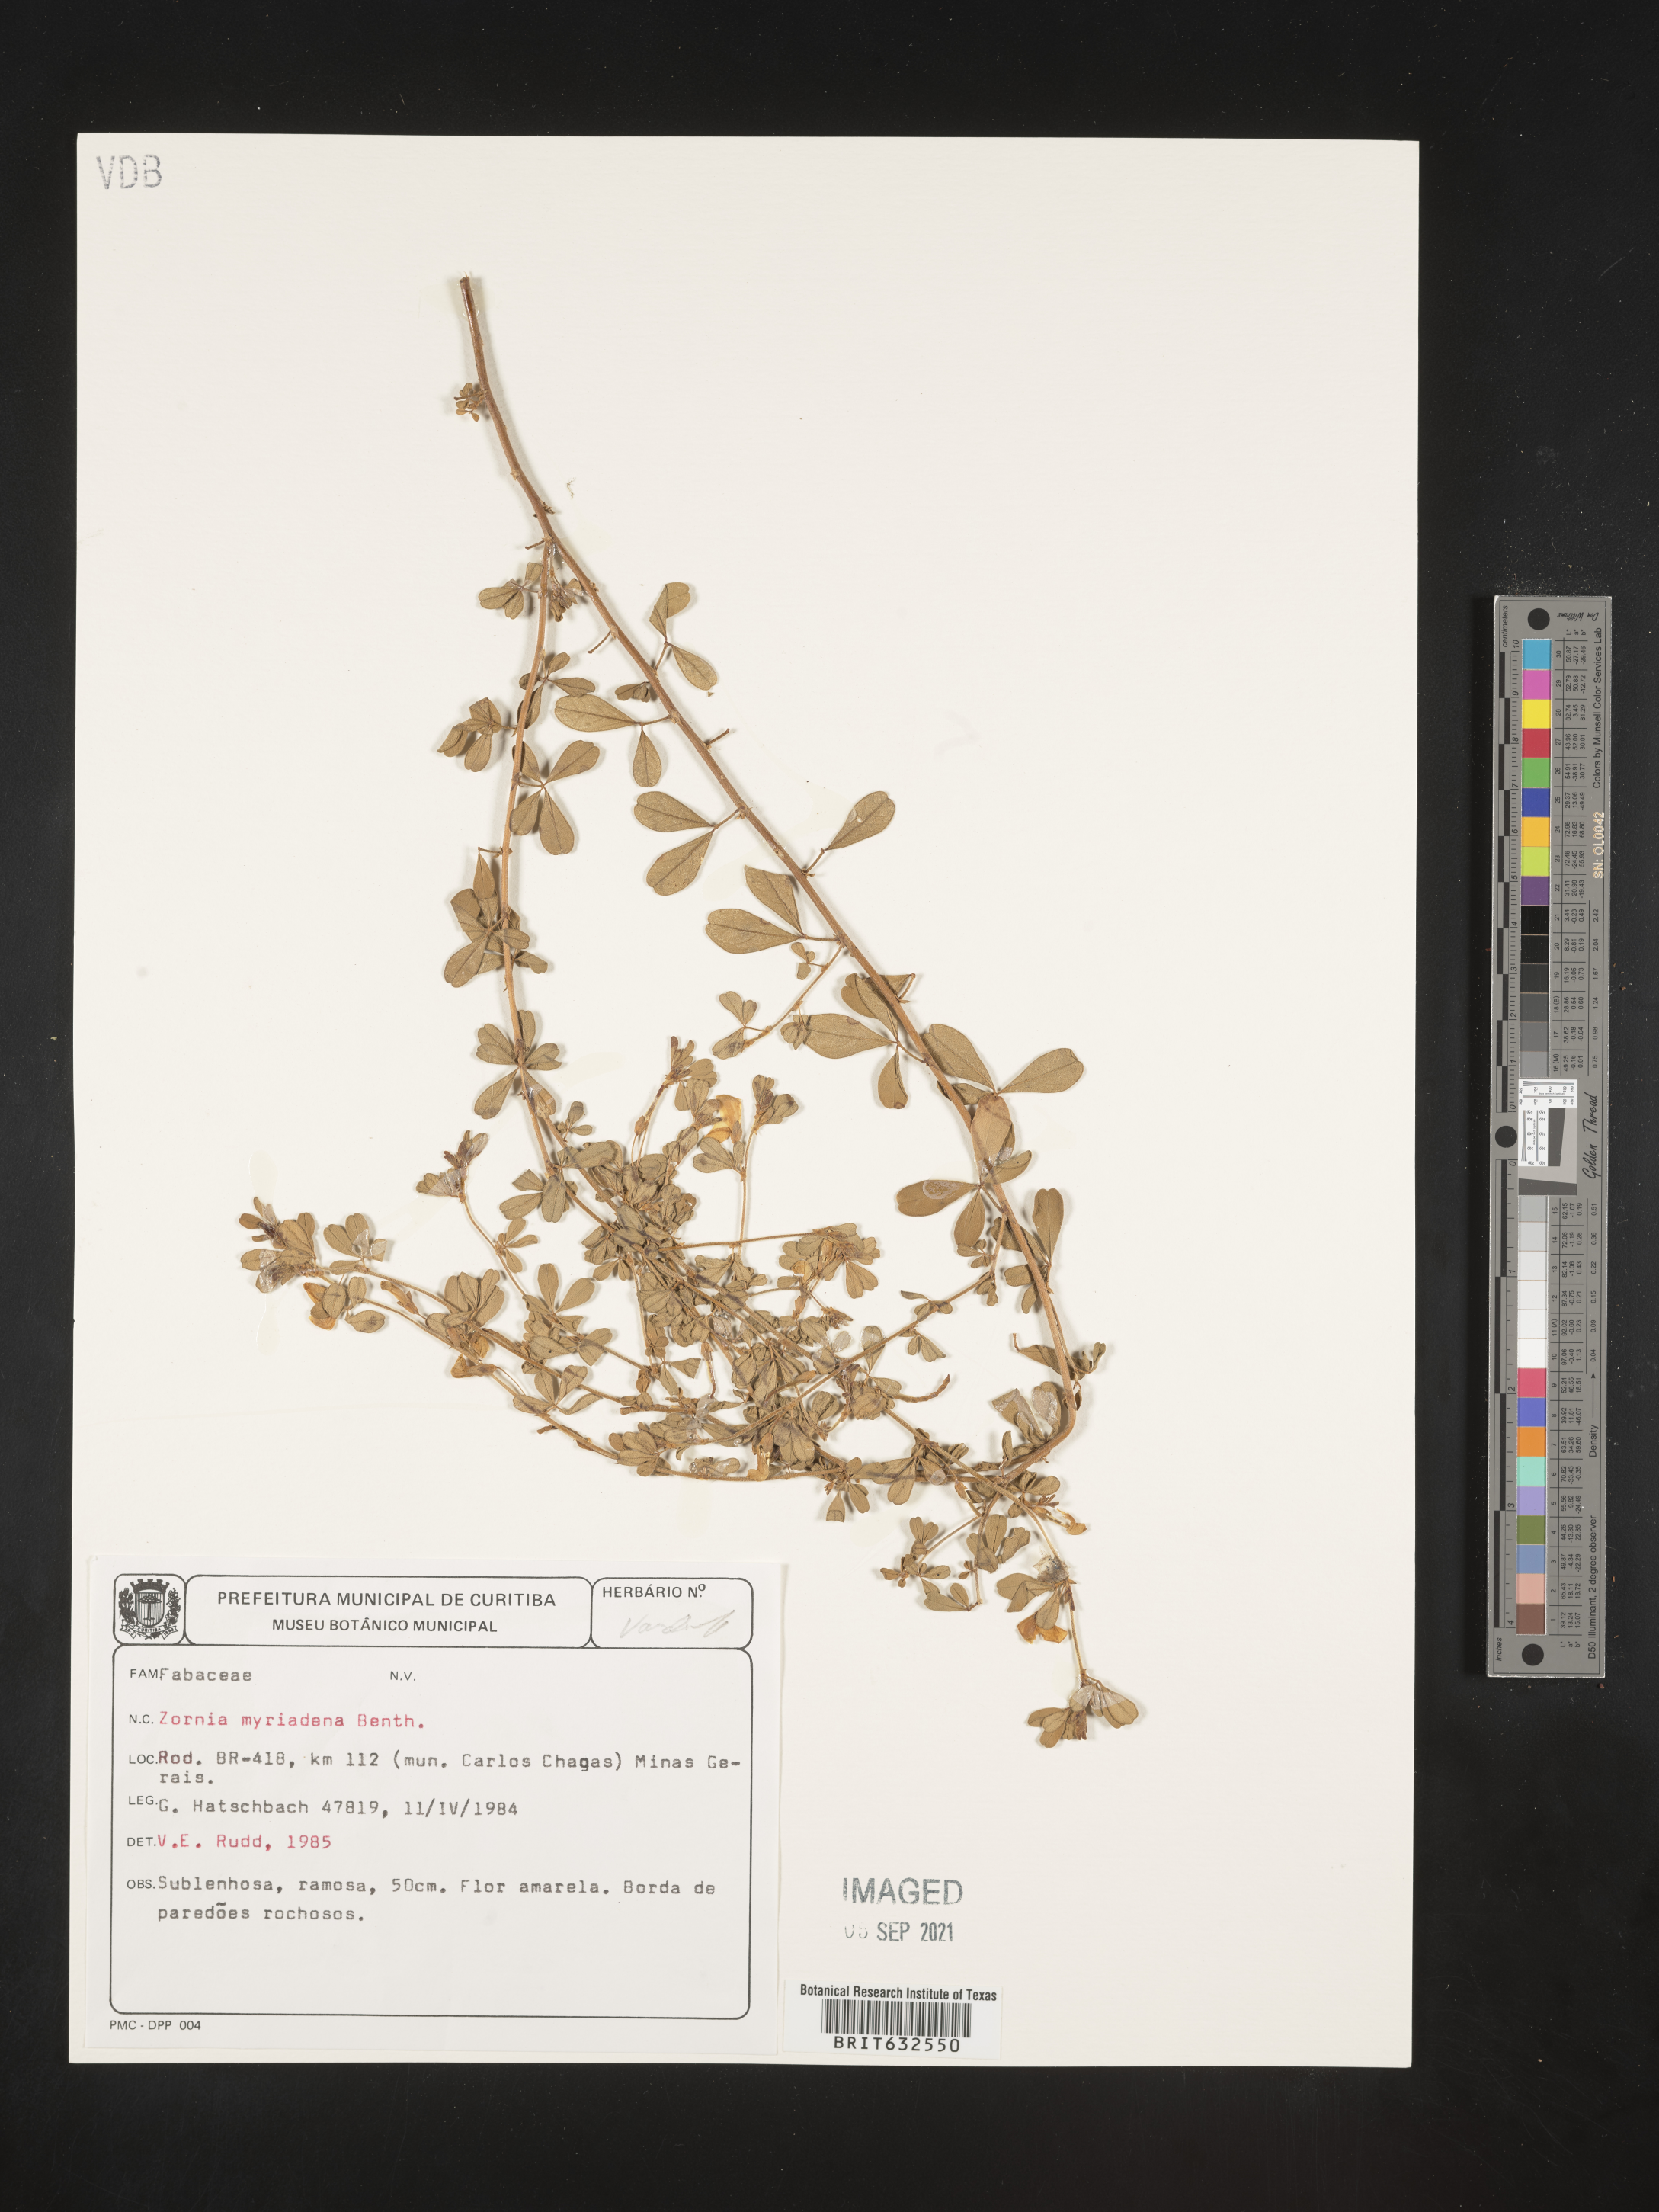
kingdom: Plantae
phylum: Tracheophyta
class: Magnoliopsida
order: Fabales
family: Fabaceae
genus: Zornia
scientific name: Zornia
